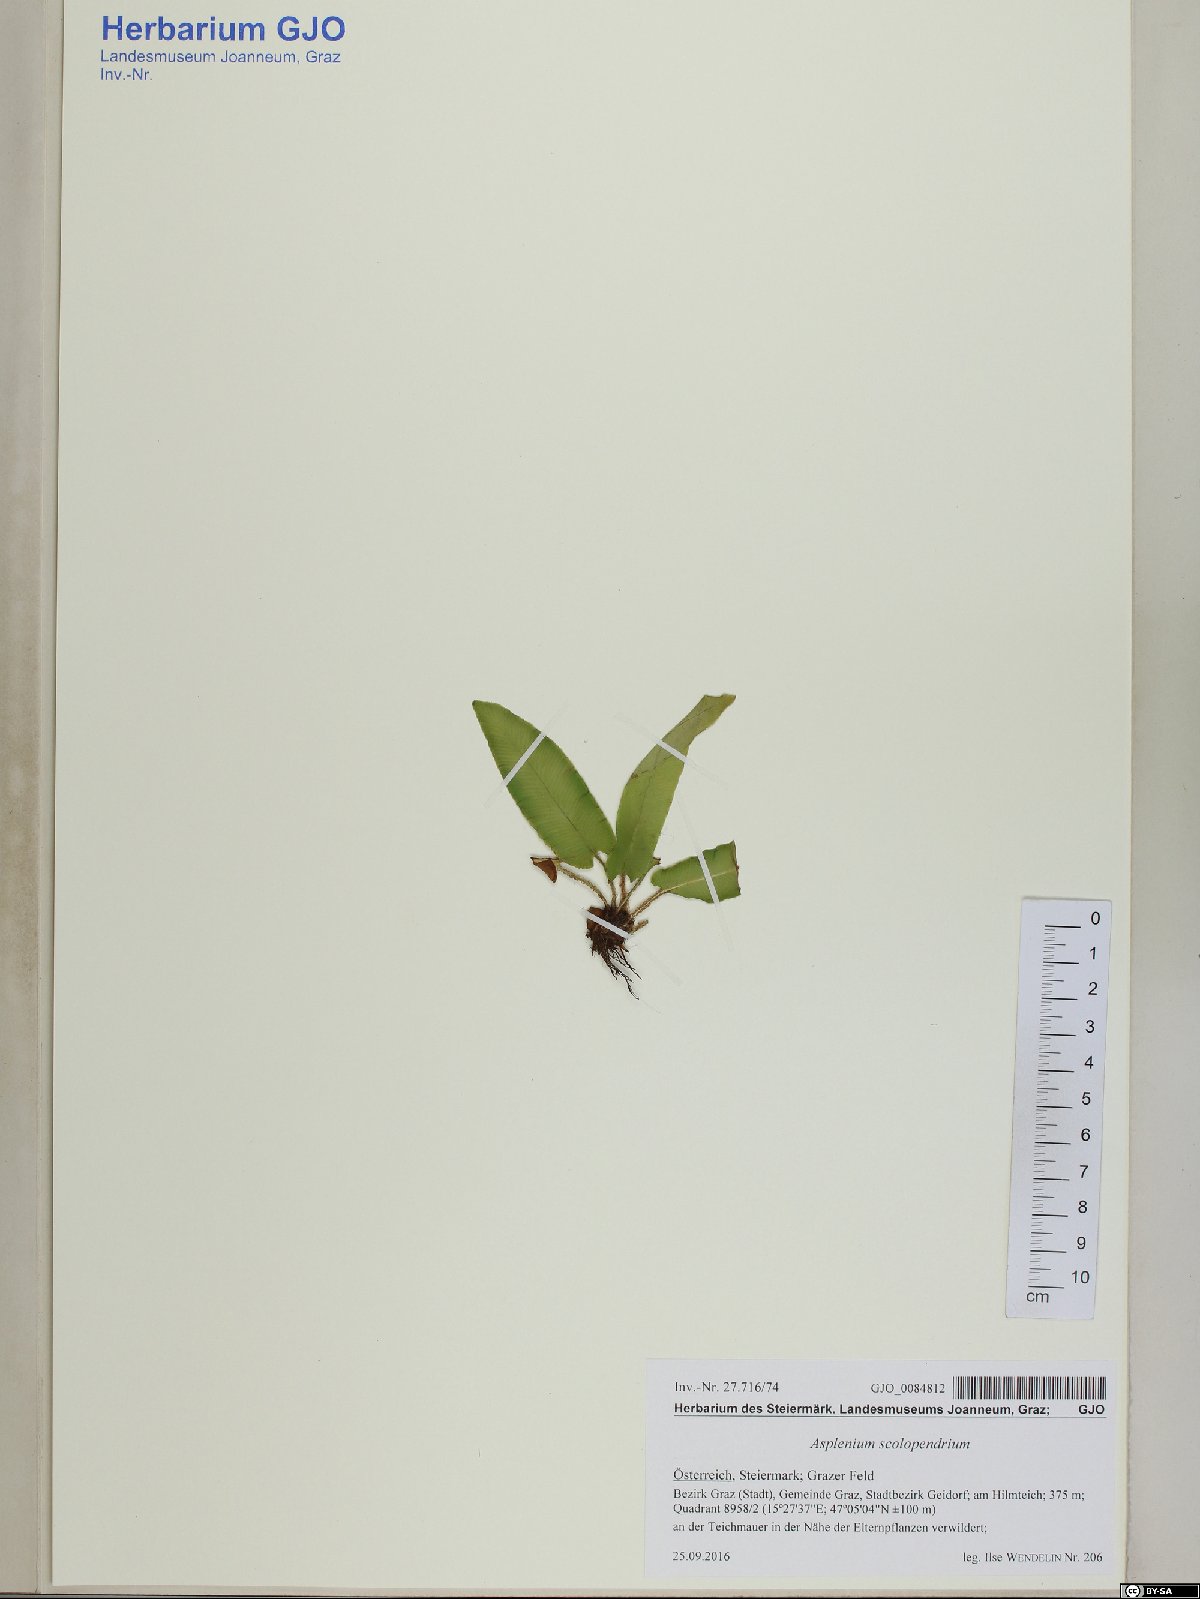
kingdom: Plantae
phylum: Tracheophyta
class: Polypodiopsida
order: Polypodiales
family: Aspleniaceae
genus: Asplenium
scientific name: Asplenium scolopendrium
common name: Hart's-tongue fern
